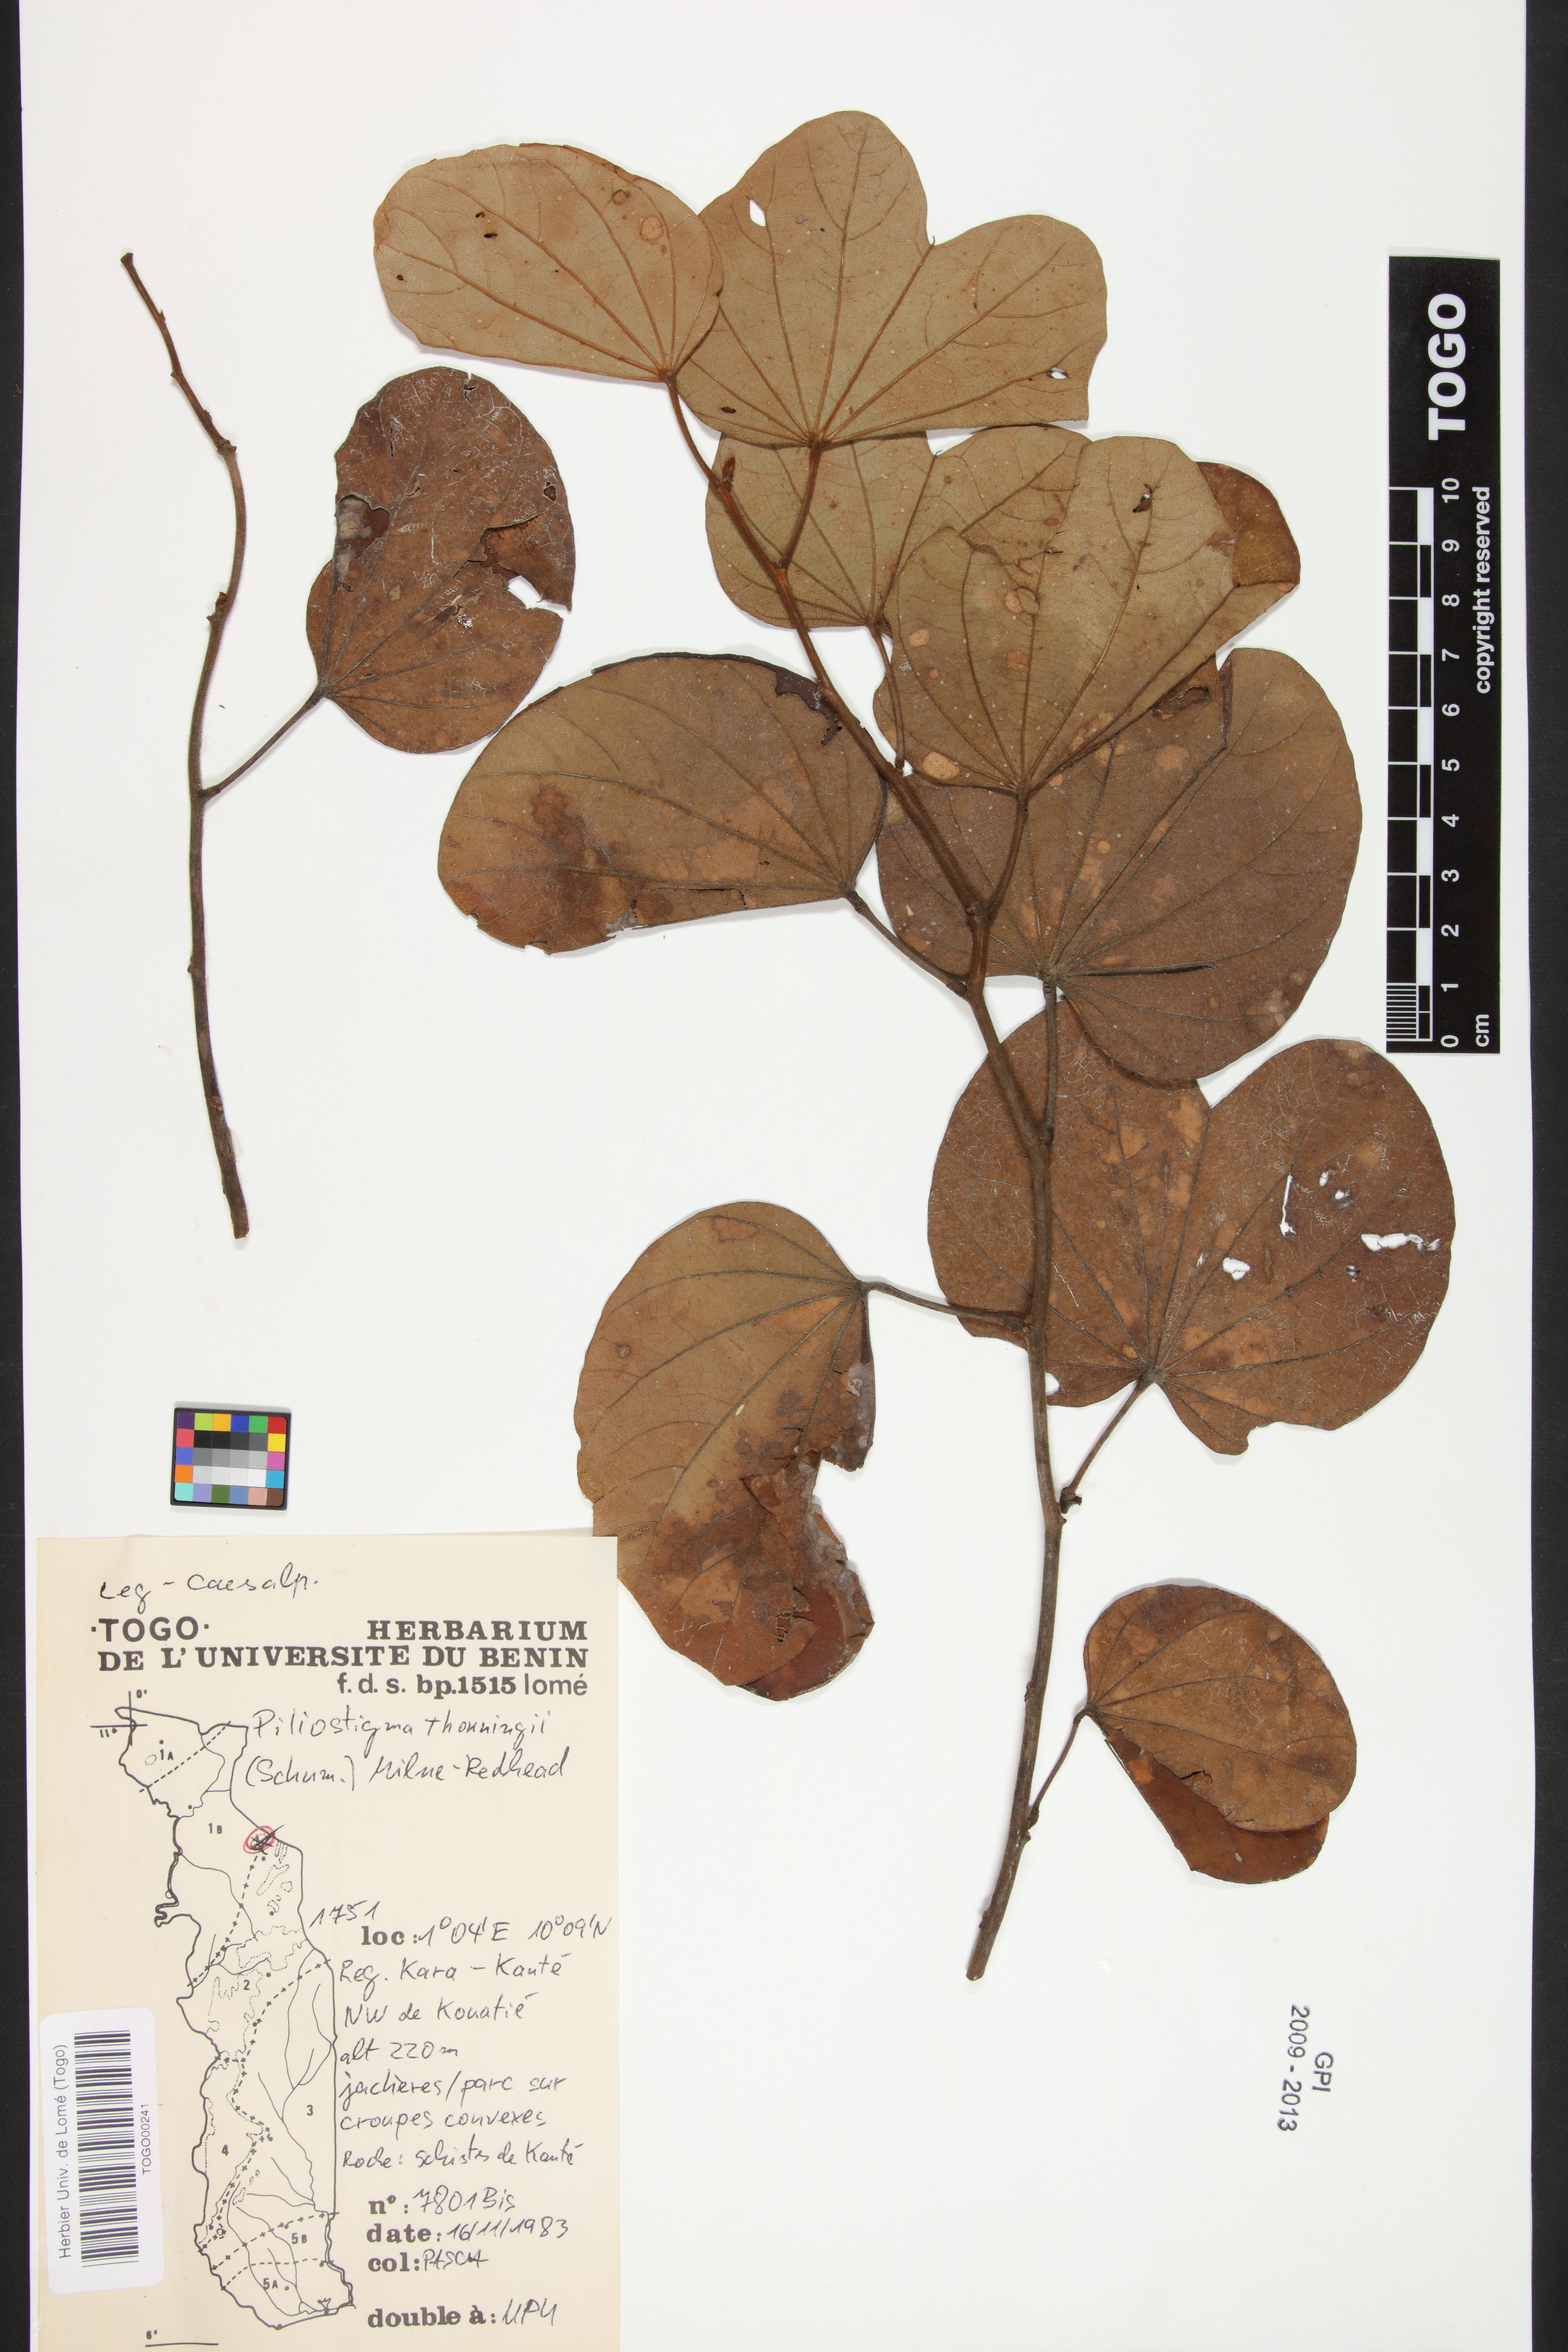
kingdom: Plantae
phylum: Tracheophyta
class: Magnoliopsida
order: Fabales
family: Fabaceae
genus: Piliostigma
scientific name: Piliostigma thonningii
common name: Kao
